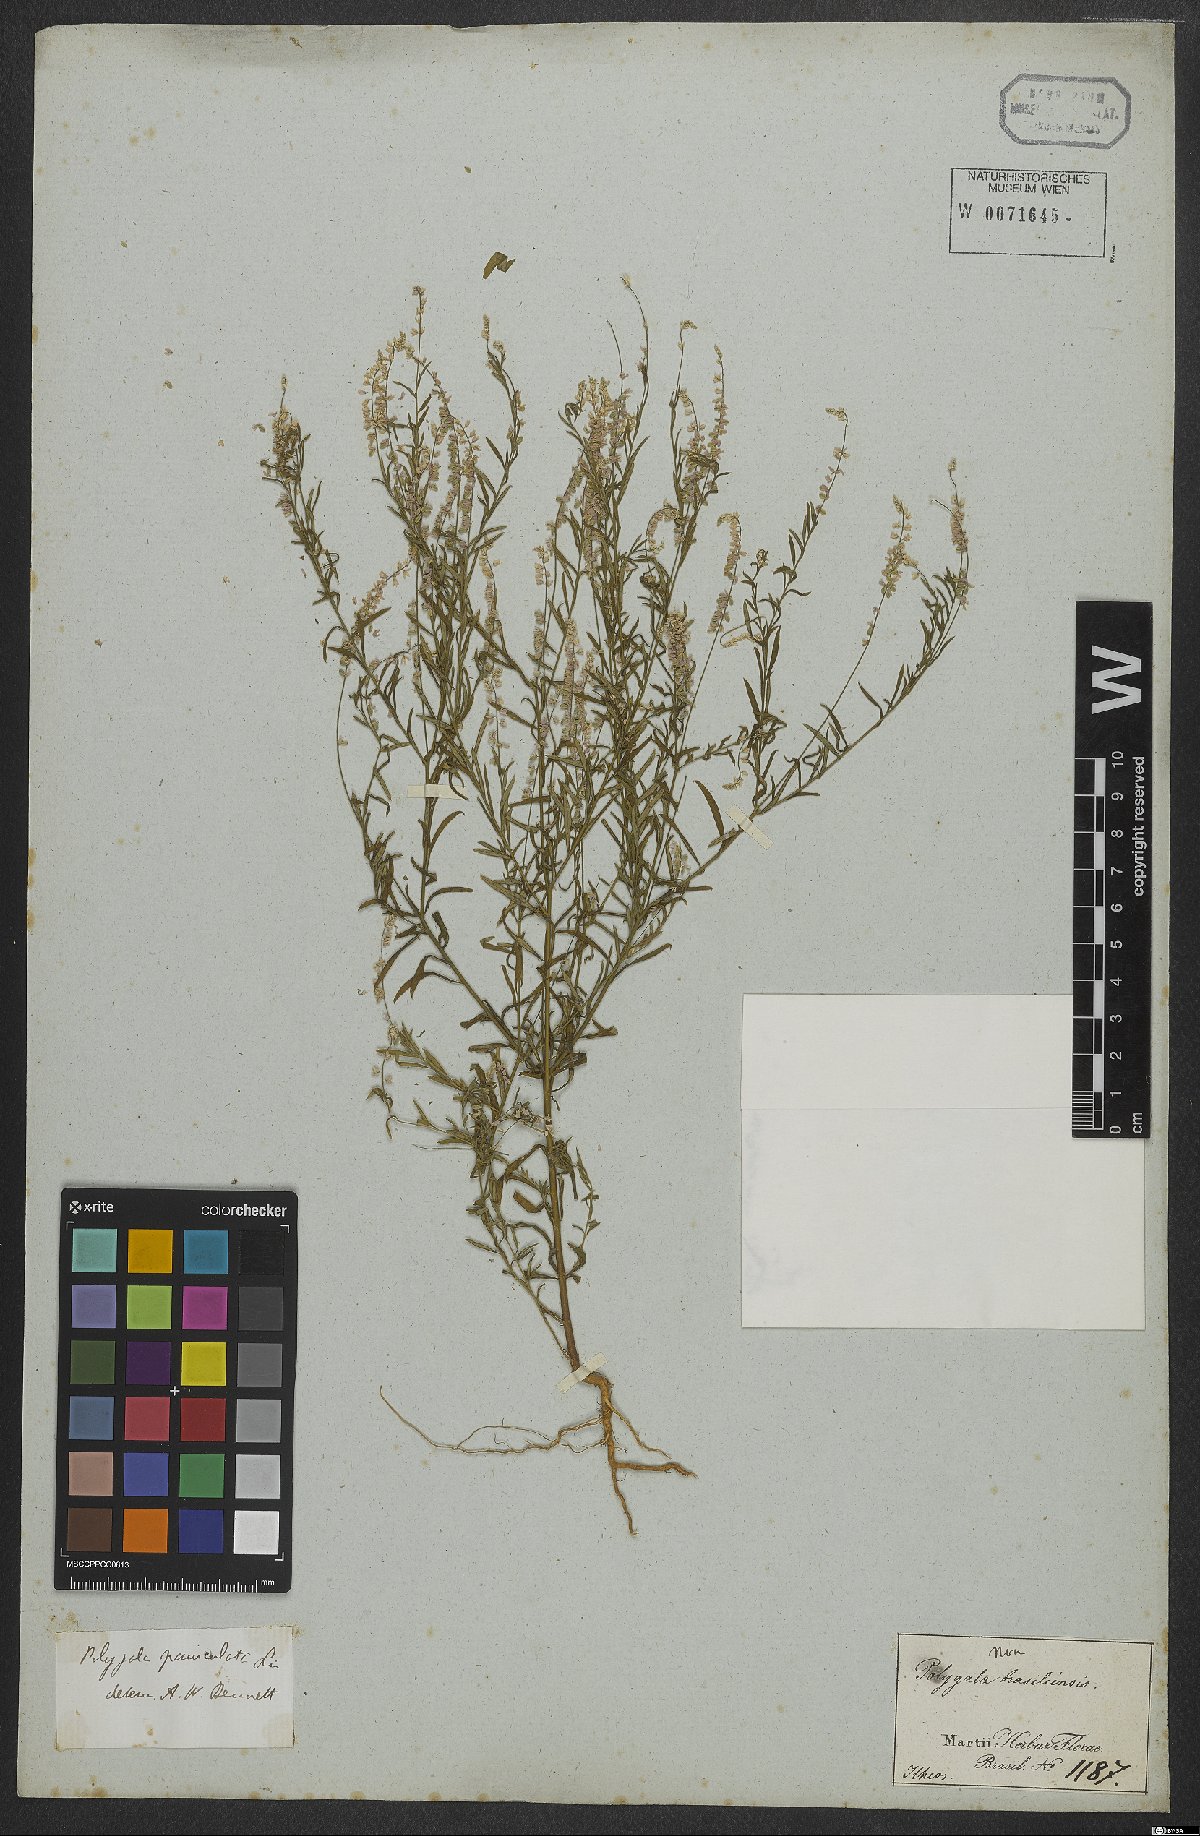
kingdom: Plantae
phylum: Tracheophyta
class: Magnoliopsida
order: Fabales
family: Polygalaceae
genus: Polygala
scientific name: Polygala exilis
